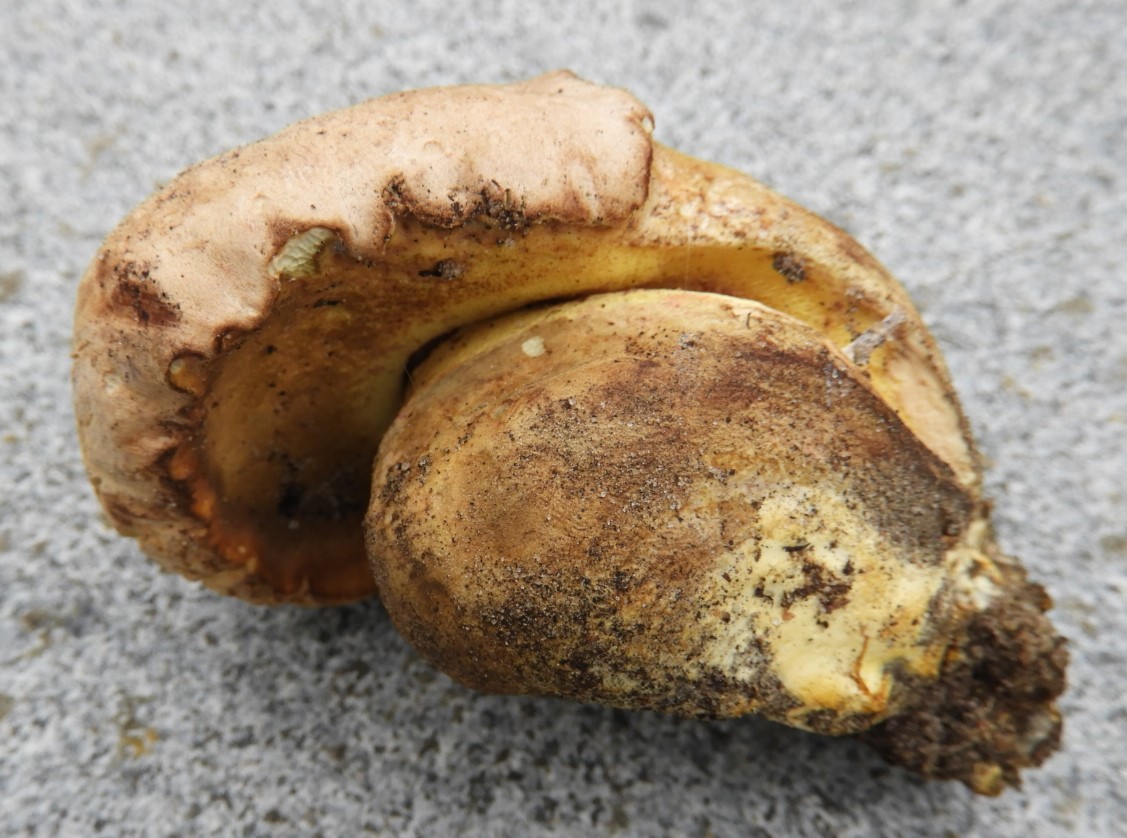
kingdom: Fungi
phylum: Basidiomycota
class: Agaricomycetes
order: Boletales
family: Boletaceae
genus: Caloboletus
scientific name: Caloboletus radicans
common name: rod-rørhat
